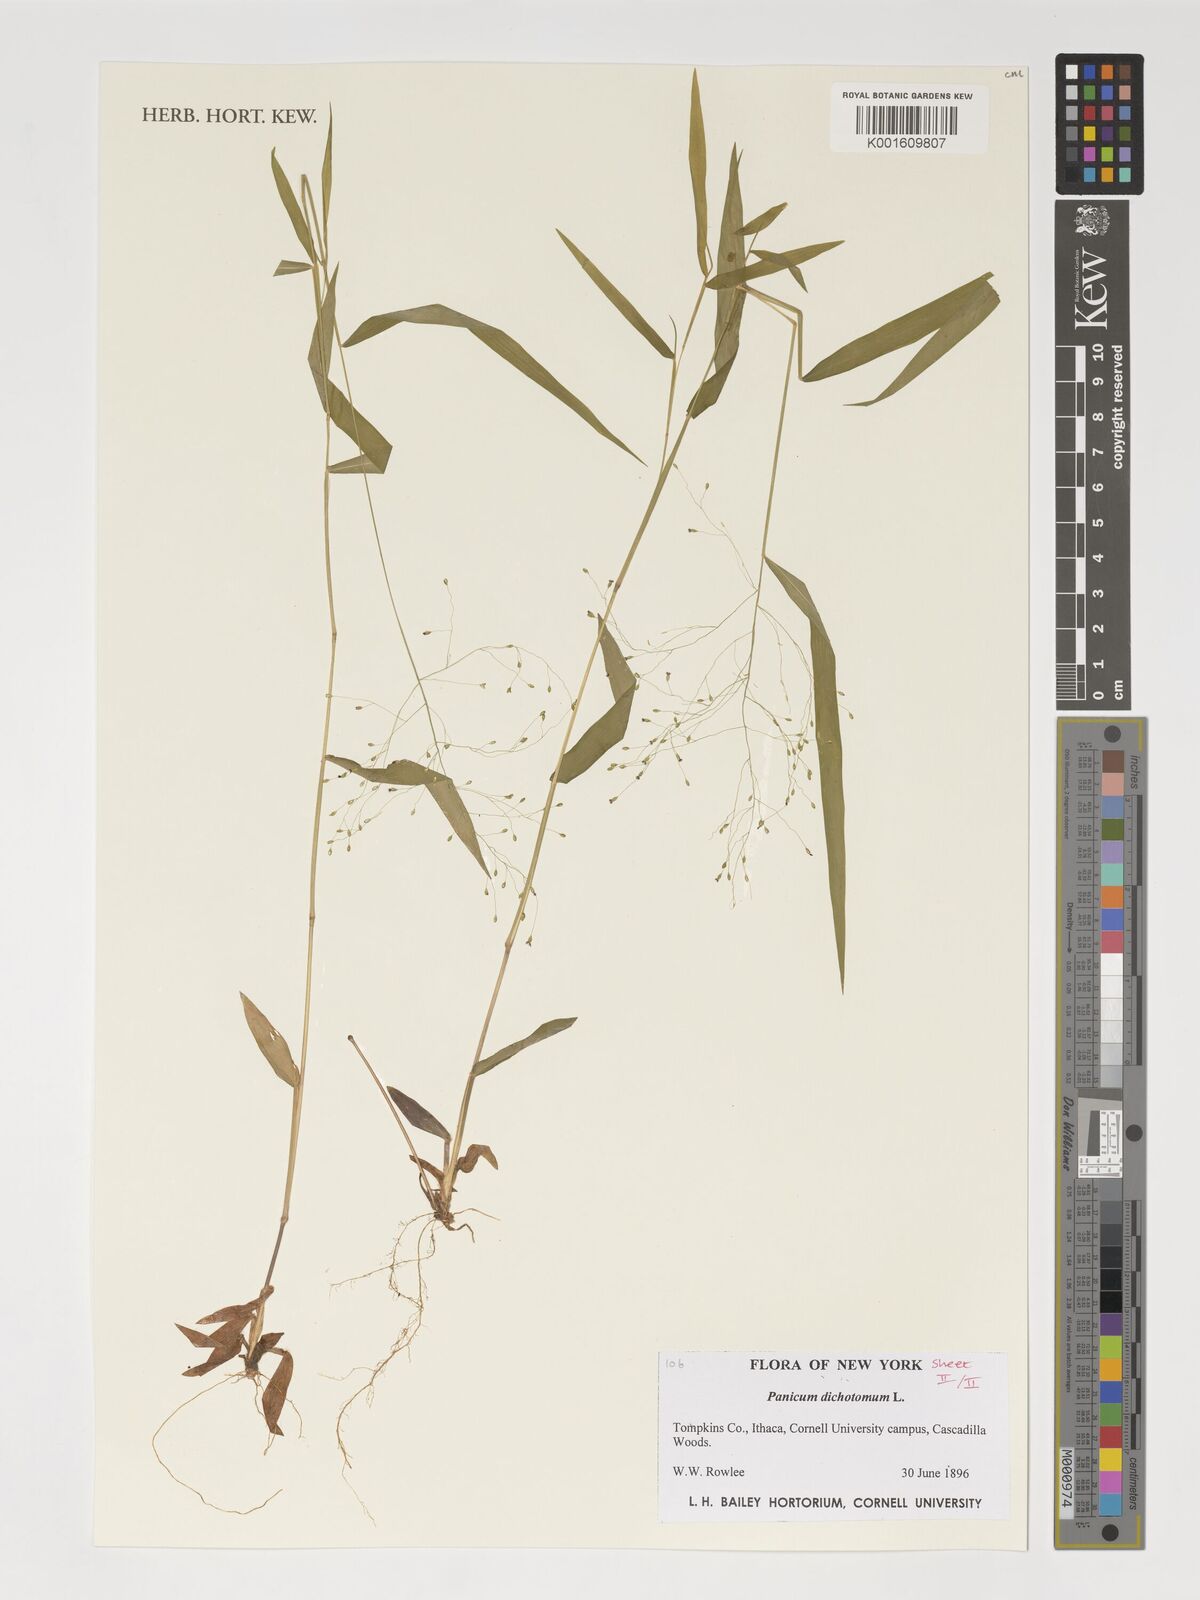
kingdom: Plantae
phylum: Tracheophyta
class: Liliopsida
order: Poales
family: Poaceae
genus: Dichanthelium
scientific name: Dichanthelium dichotomum
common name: Cypress panicgrass
